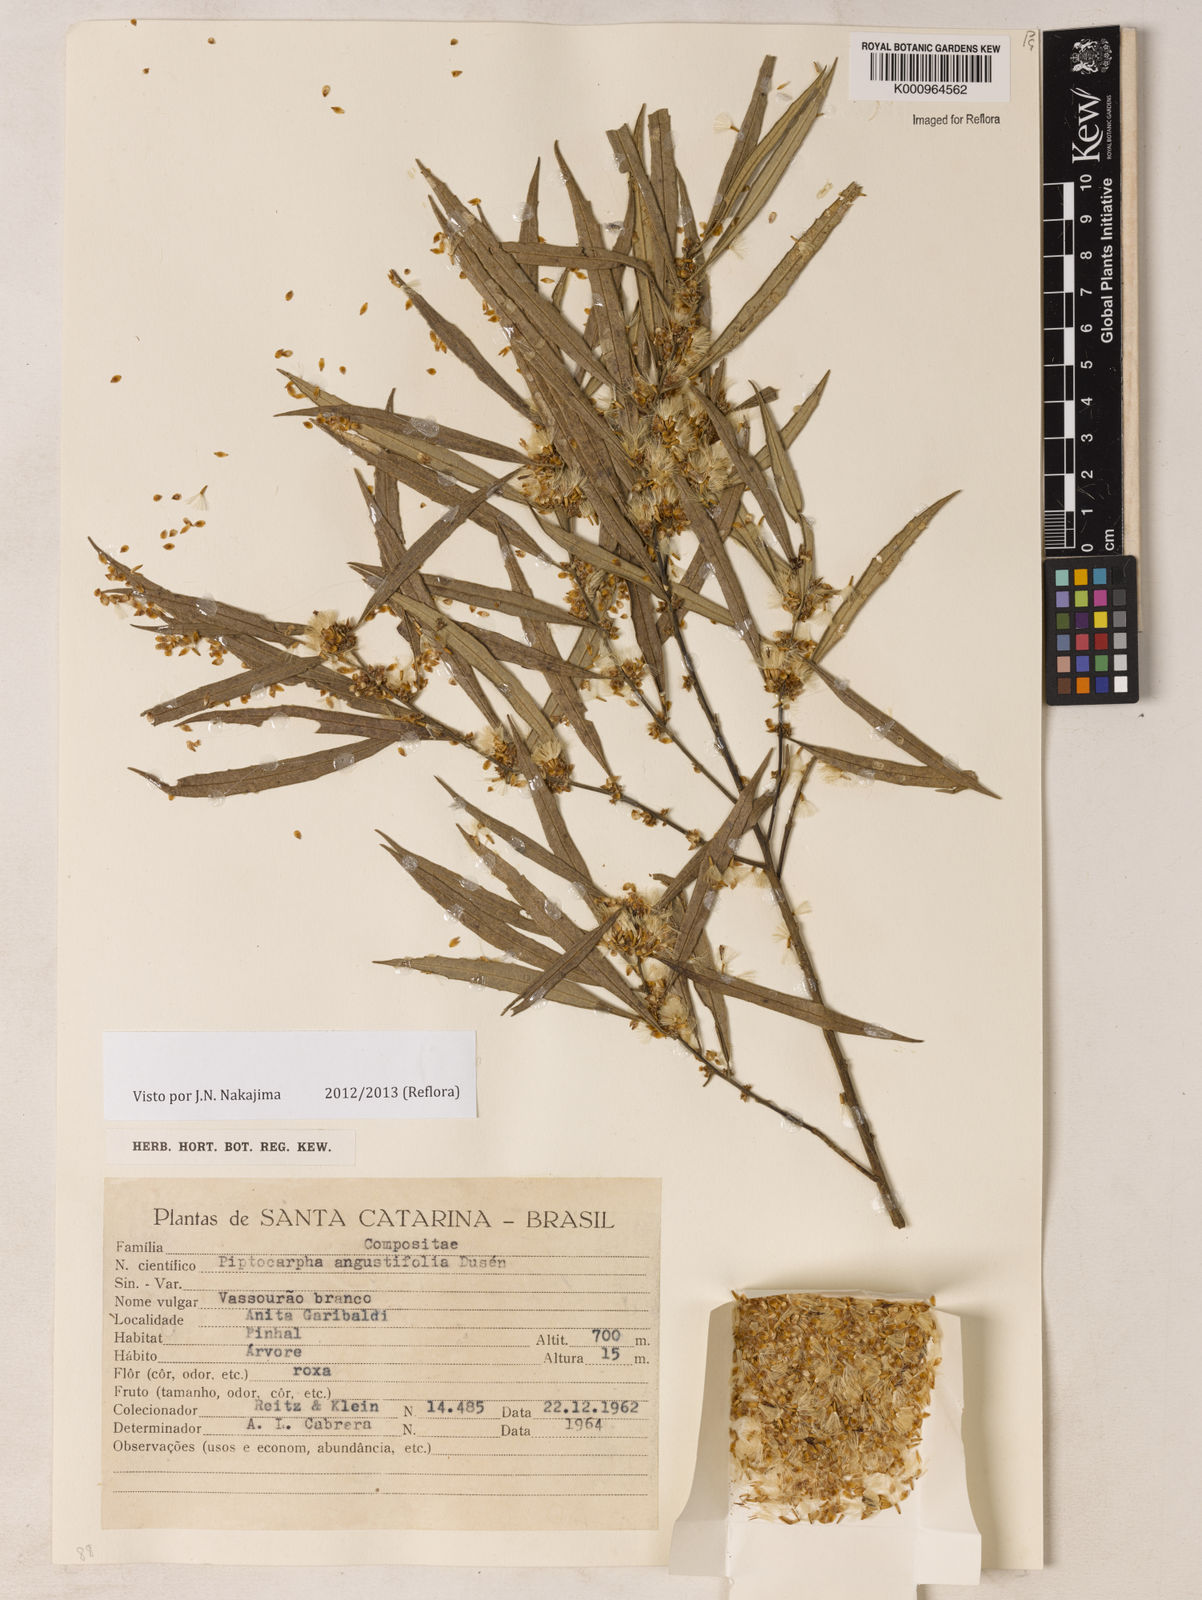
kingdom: Plantae
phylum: Tracheophyta
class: Magnoliopsida
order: Asterales
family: Asteraceae
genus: Piptocarpha
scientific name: Piptocarpha
